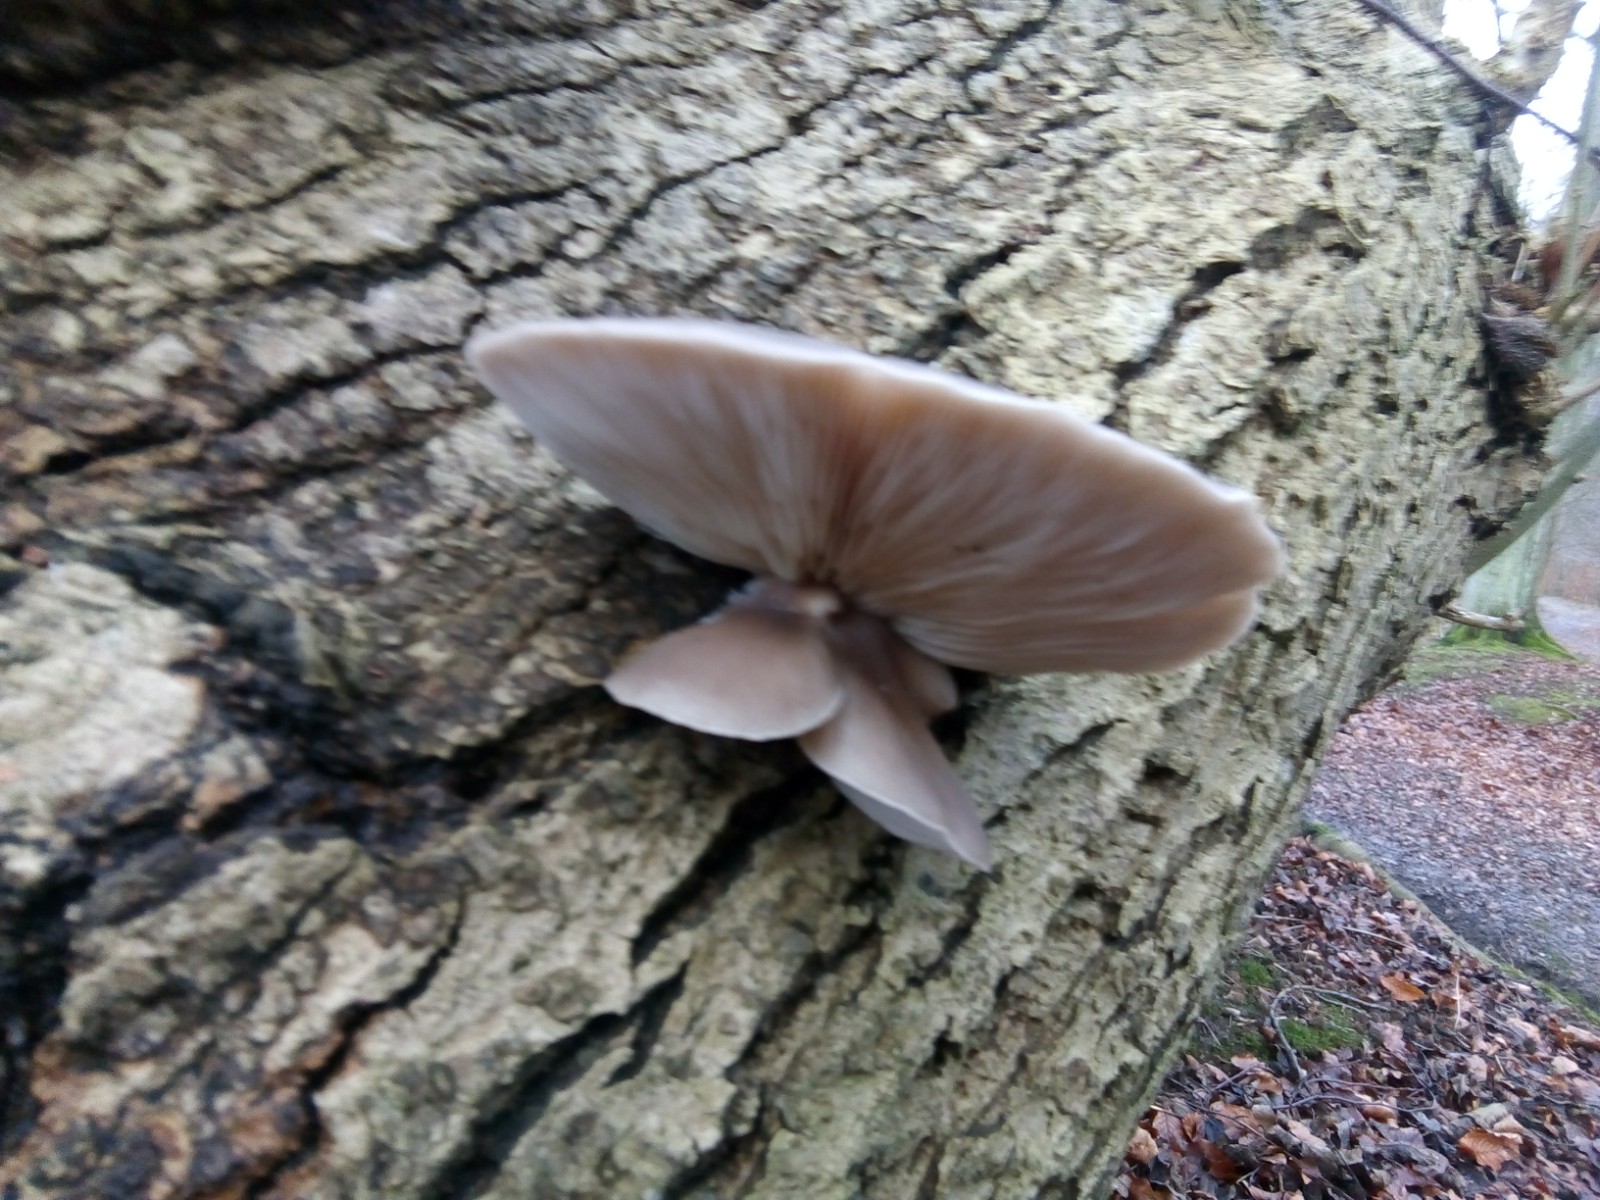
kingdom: Fungi
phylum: Basidiomycota
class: Agaricomycetes
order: Agaricales
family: Pleurotaceae
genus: Pleurotus
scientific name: Pleurotus ostreatus
